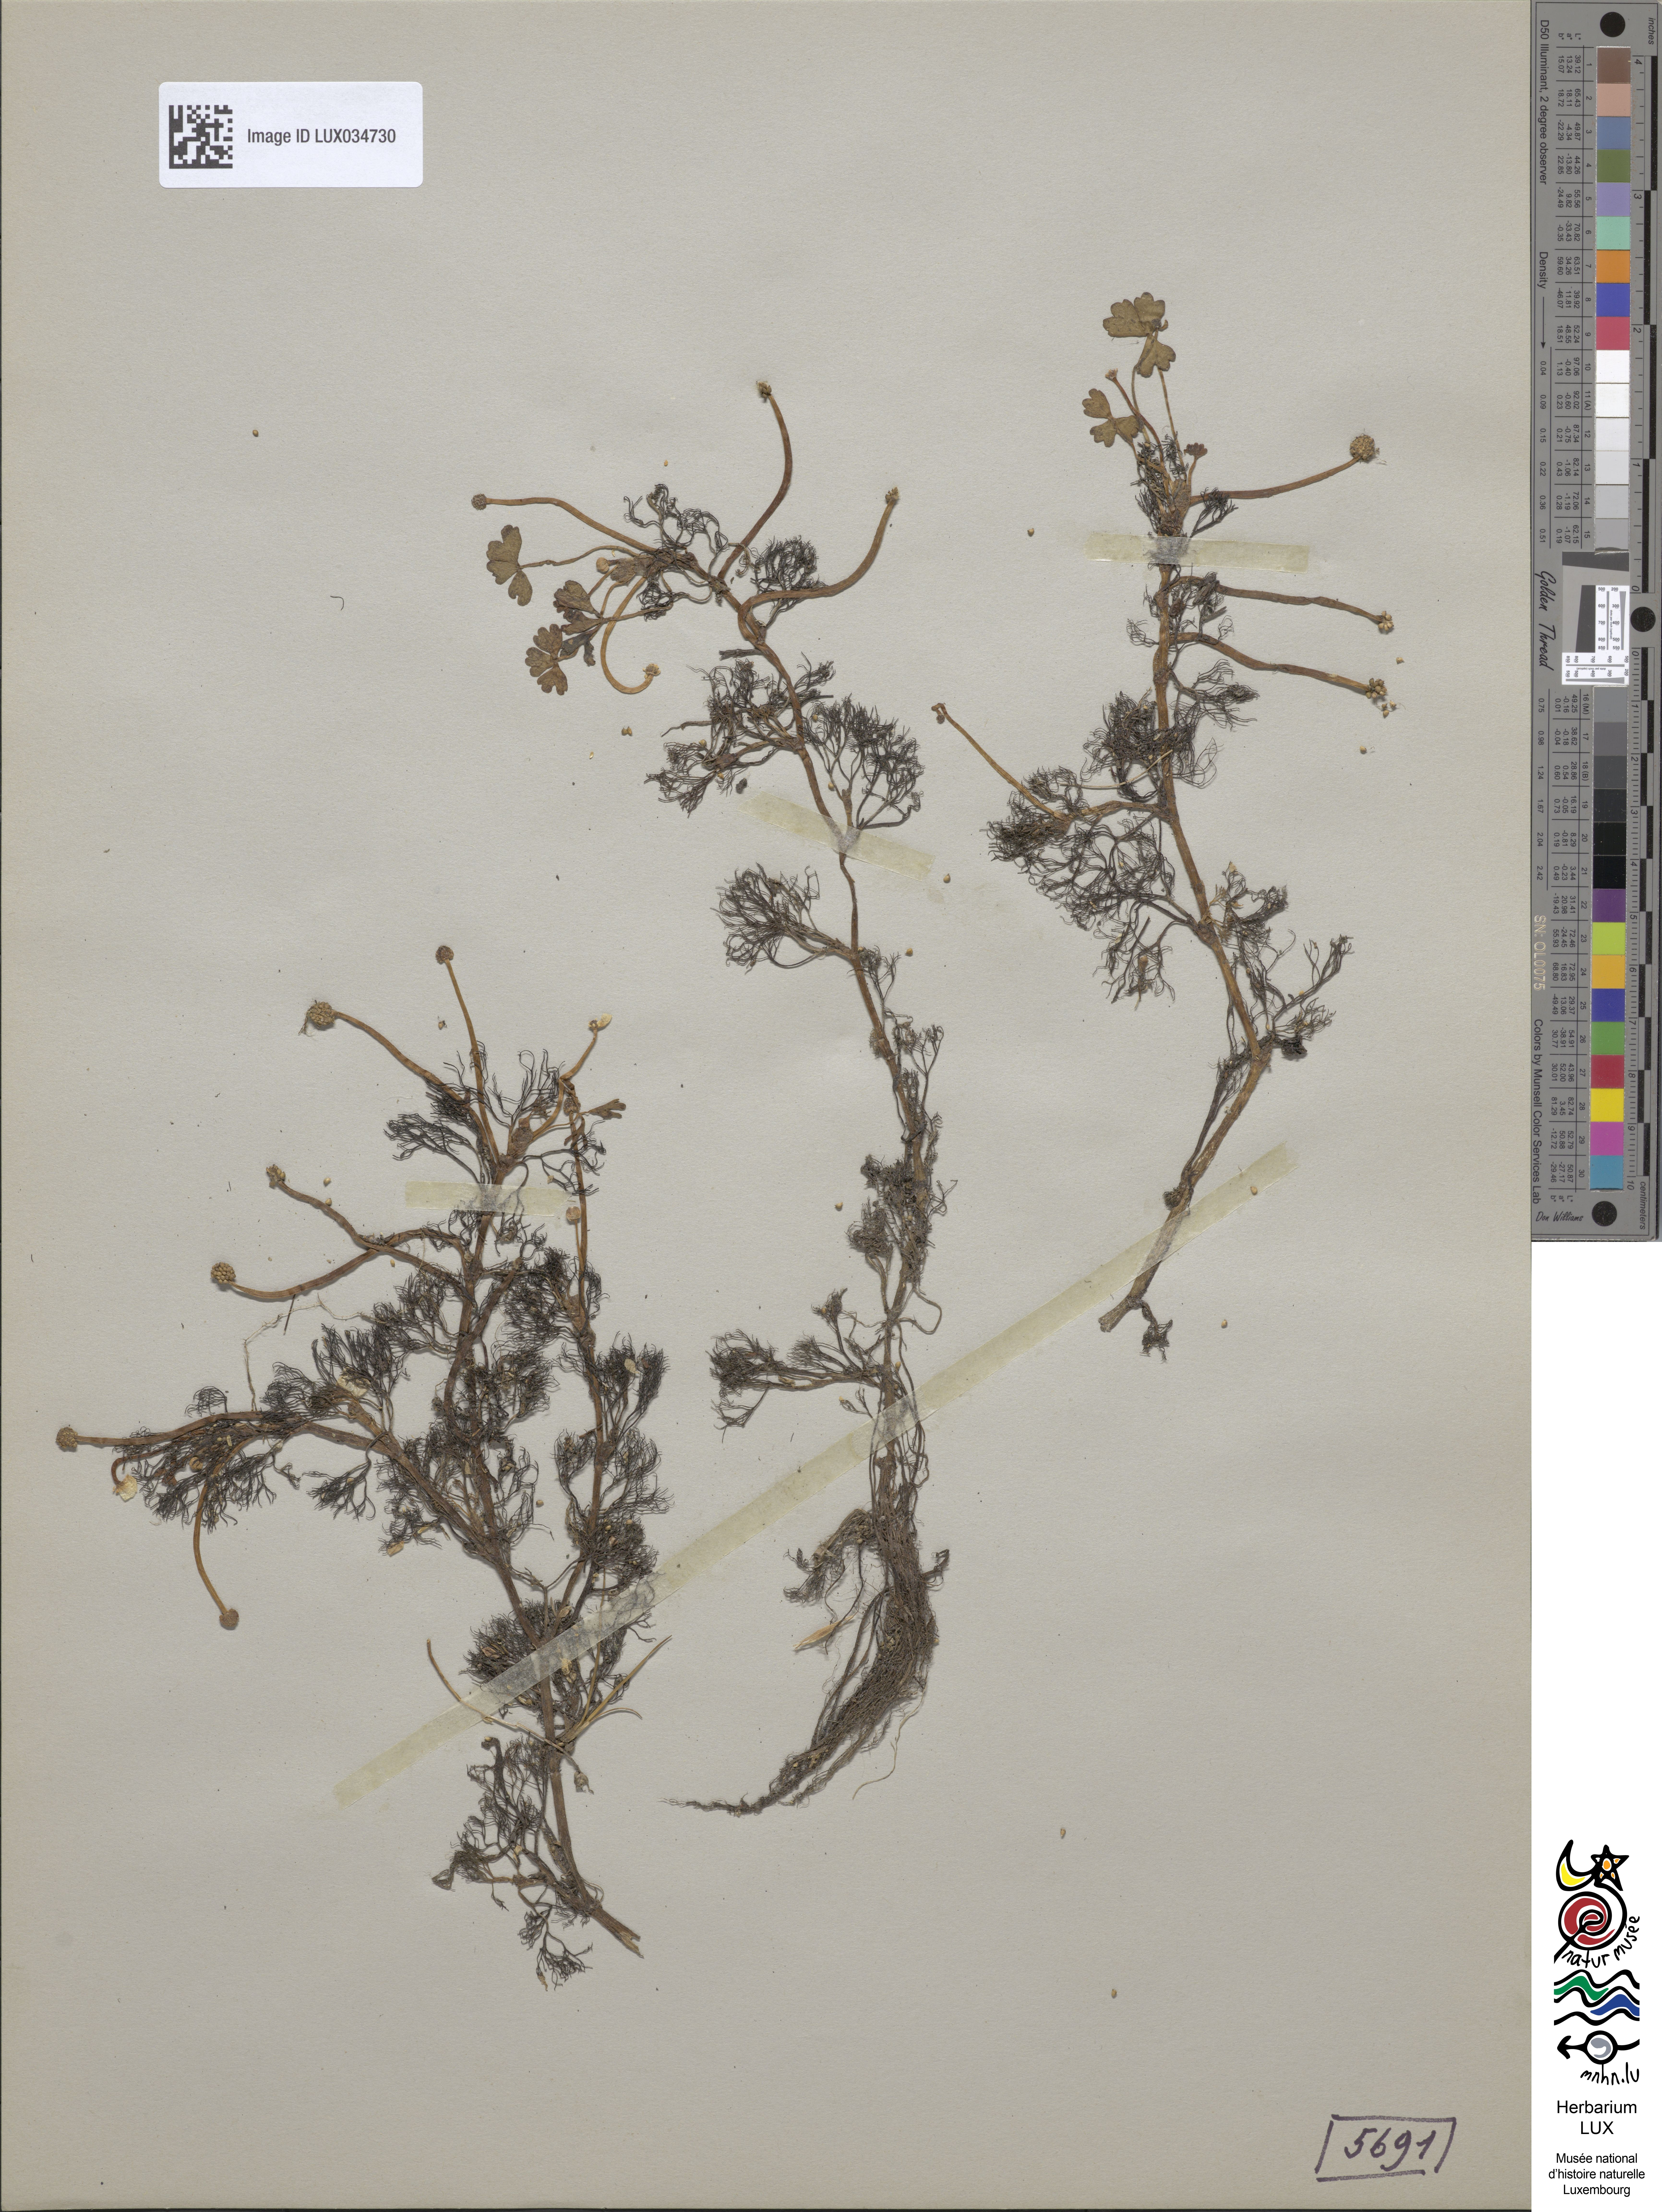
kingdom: Plantae
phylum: Tracheophyta
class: Magnoliopsida
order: Ranunculales
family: Ranunculaceae
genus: Ranunculus
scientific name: Ranunculus peltatus
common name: Pond water-crowfoot
